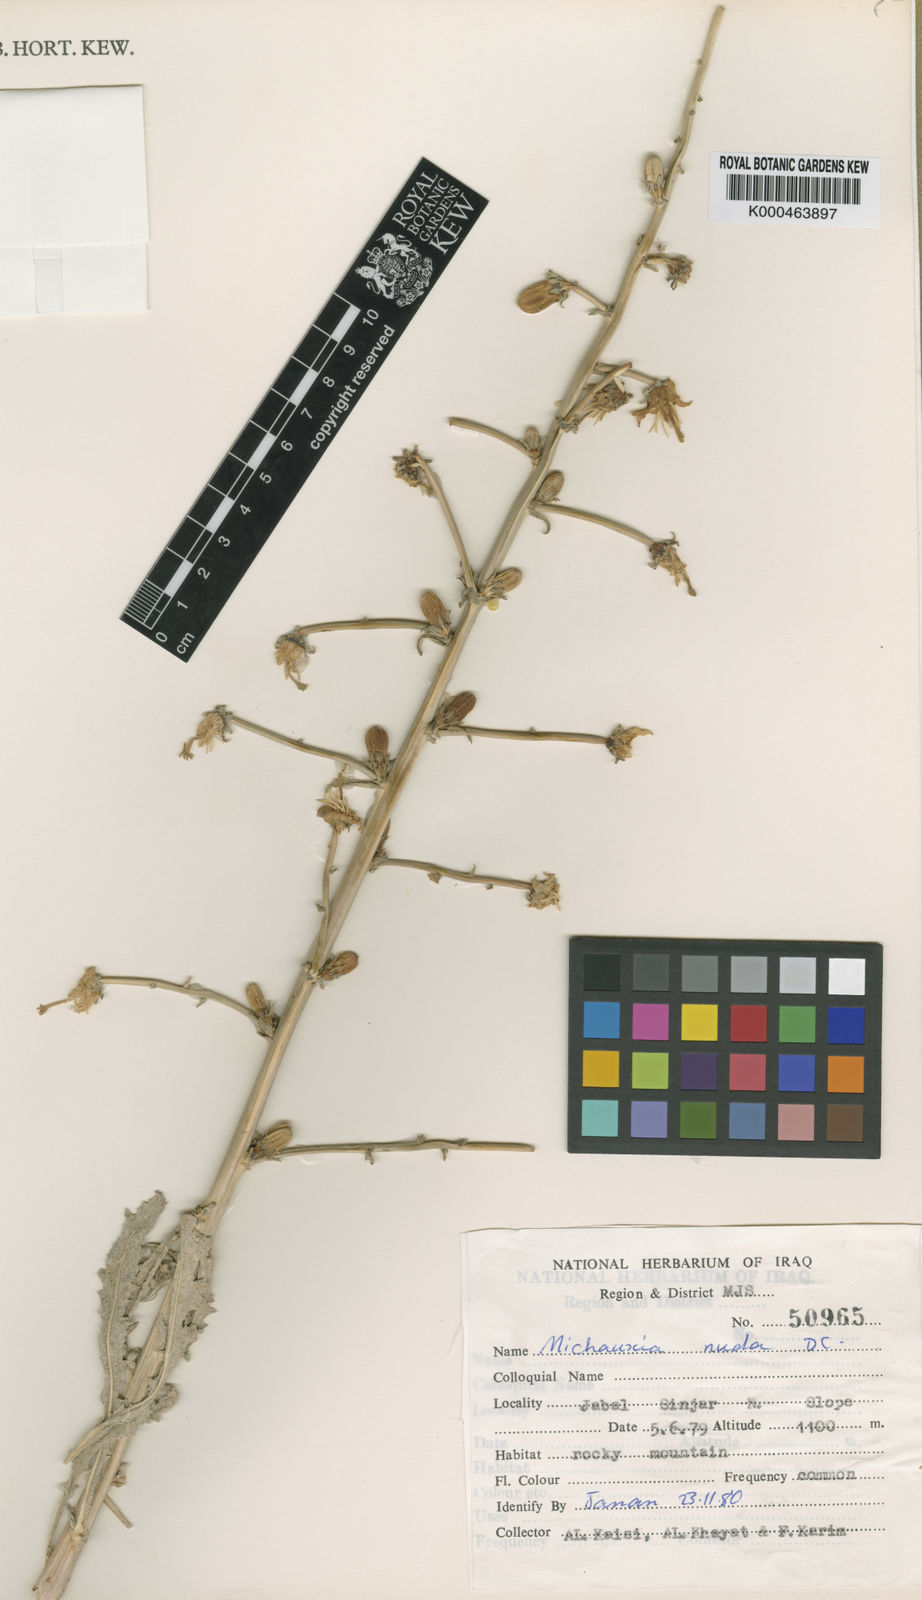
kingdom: Plantae
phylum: Tracheophyta
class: Magnoliopsida
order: Asterales
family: Campanulaceae
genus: Michauxia
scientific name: Michauxia nuda
